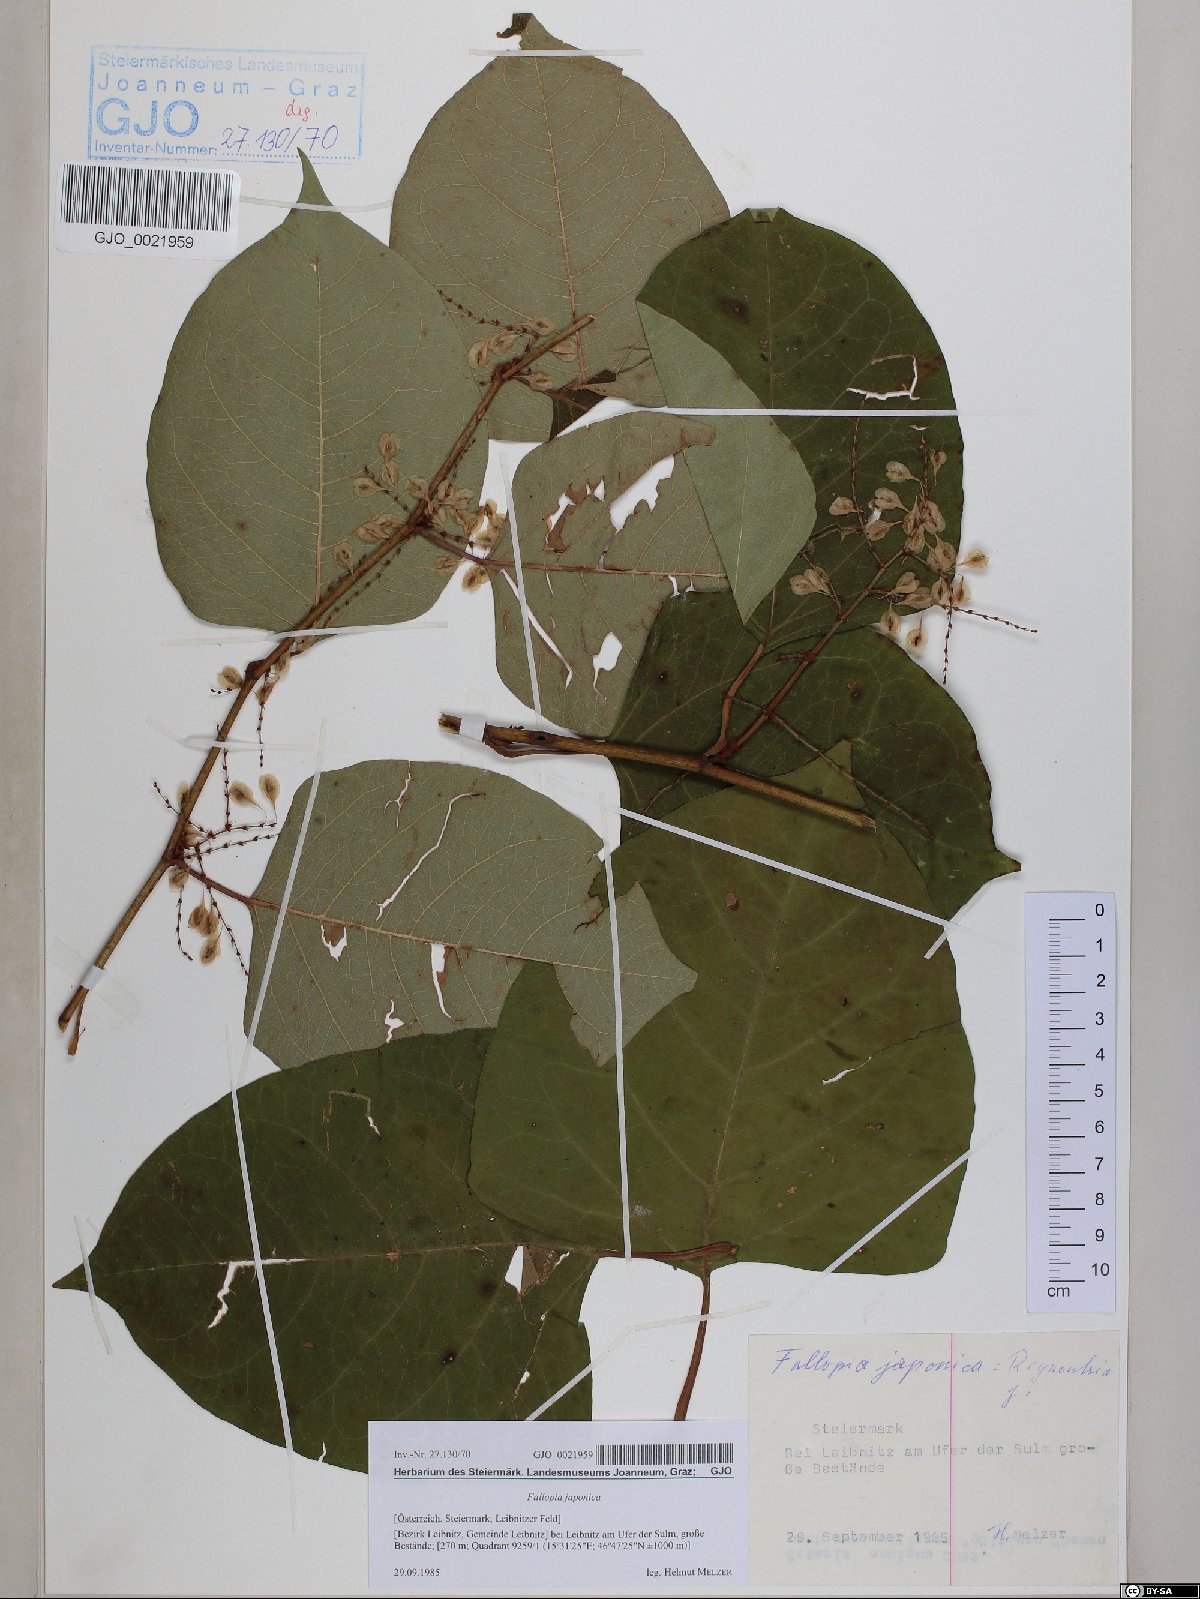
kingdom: Plantae
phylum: Tracheophyta
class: Magnoliopsida
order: Caryophyllales
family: Polygonaceae
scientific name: Polygonaceae
